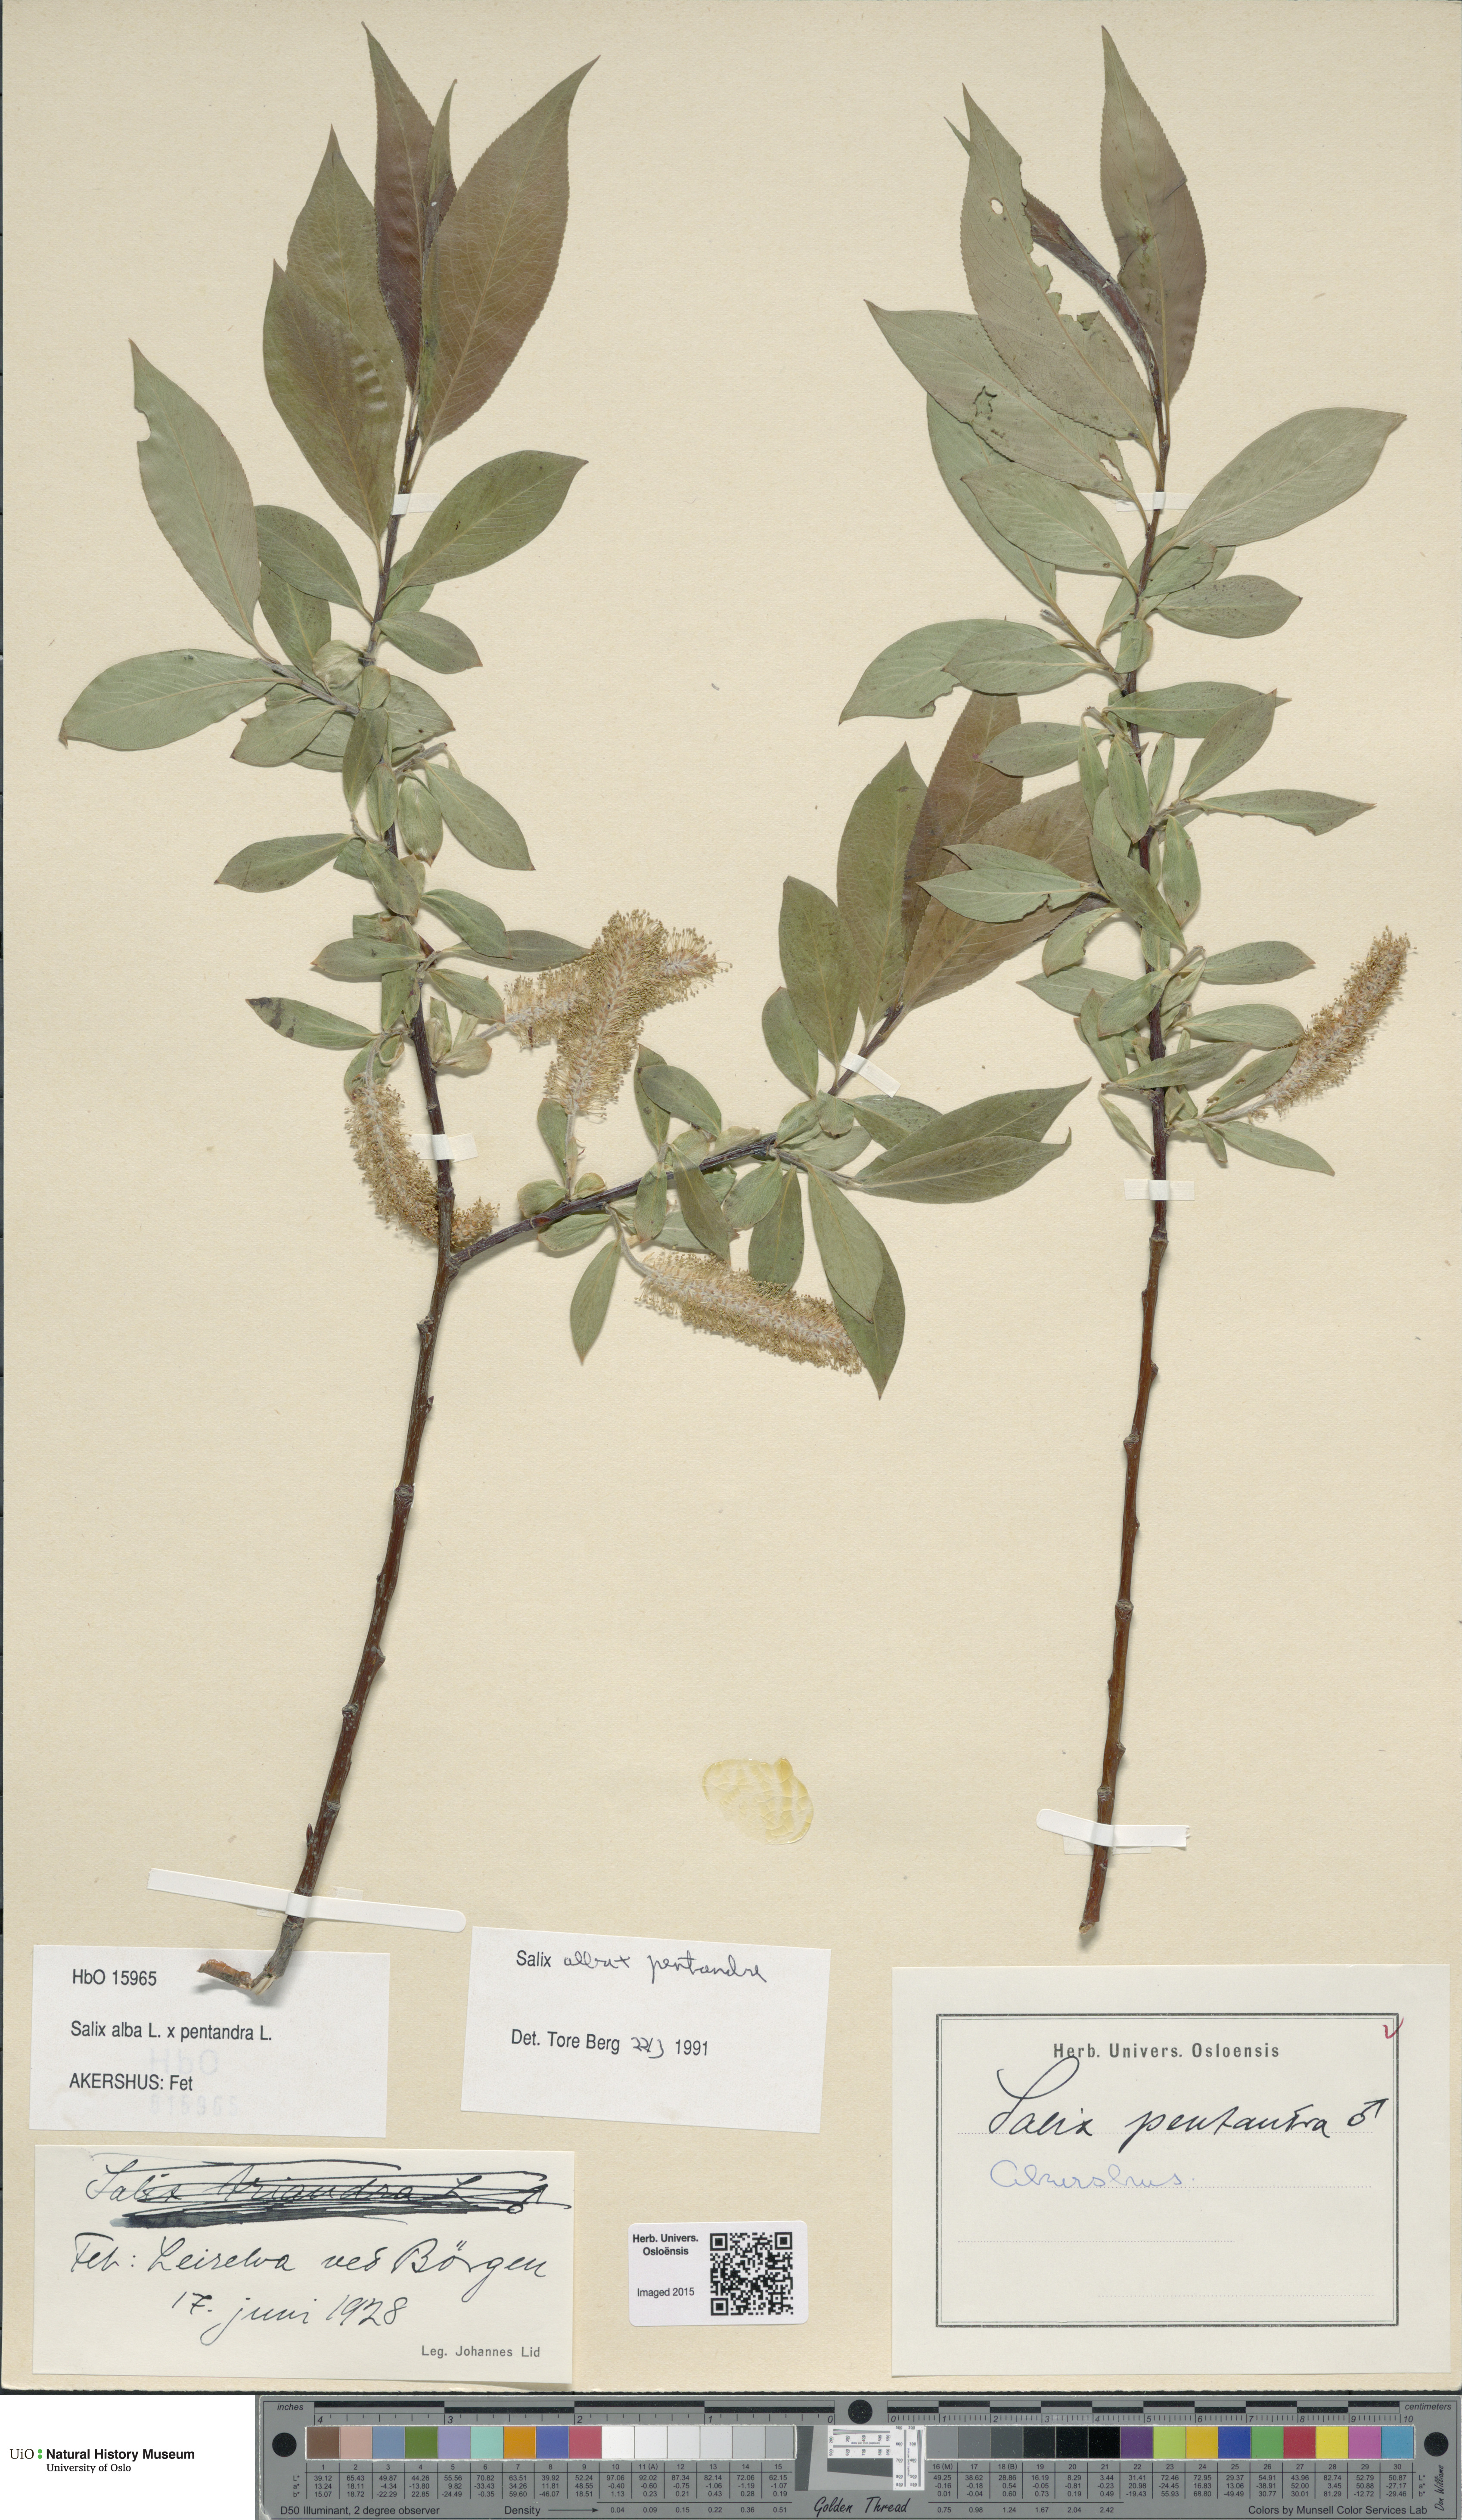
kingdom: Plantae
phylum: Tracheophyta
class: Magnoliopsida
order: Malpighiales
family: Salicaceae
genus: Salix
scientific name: Salix
